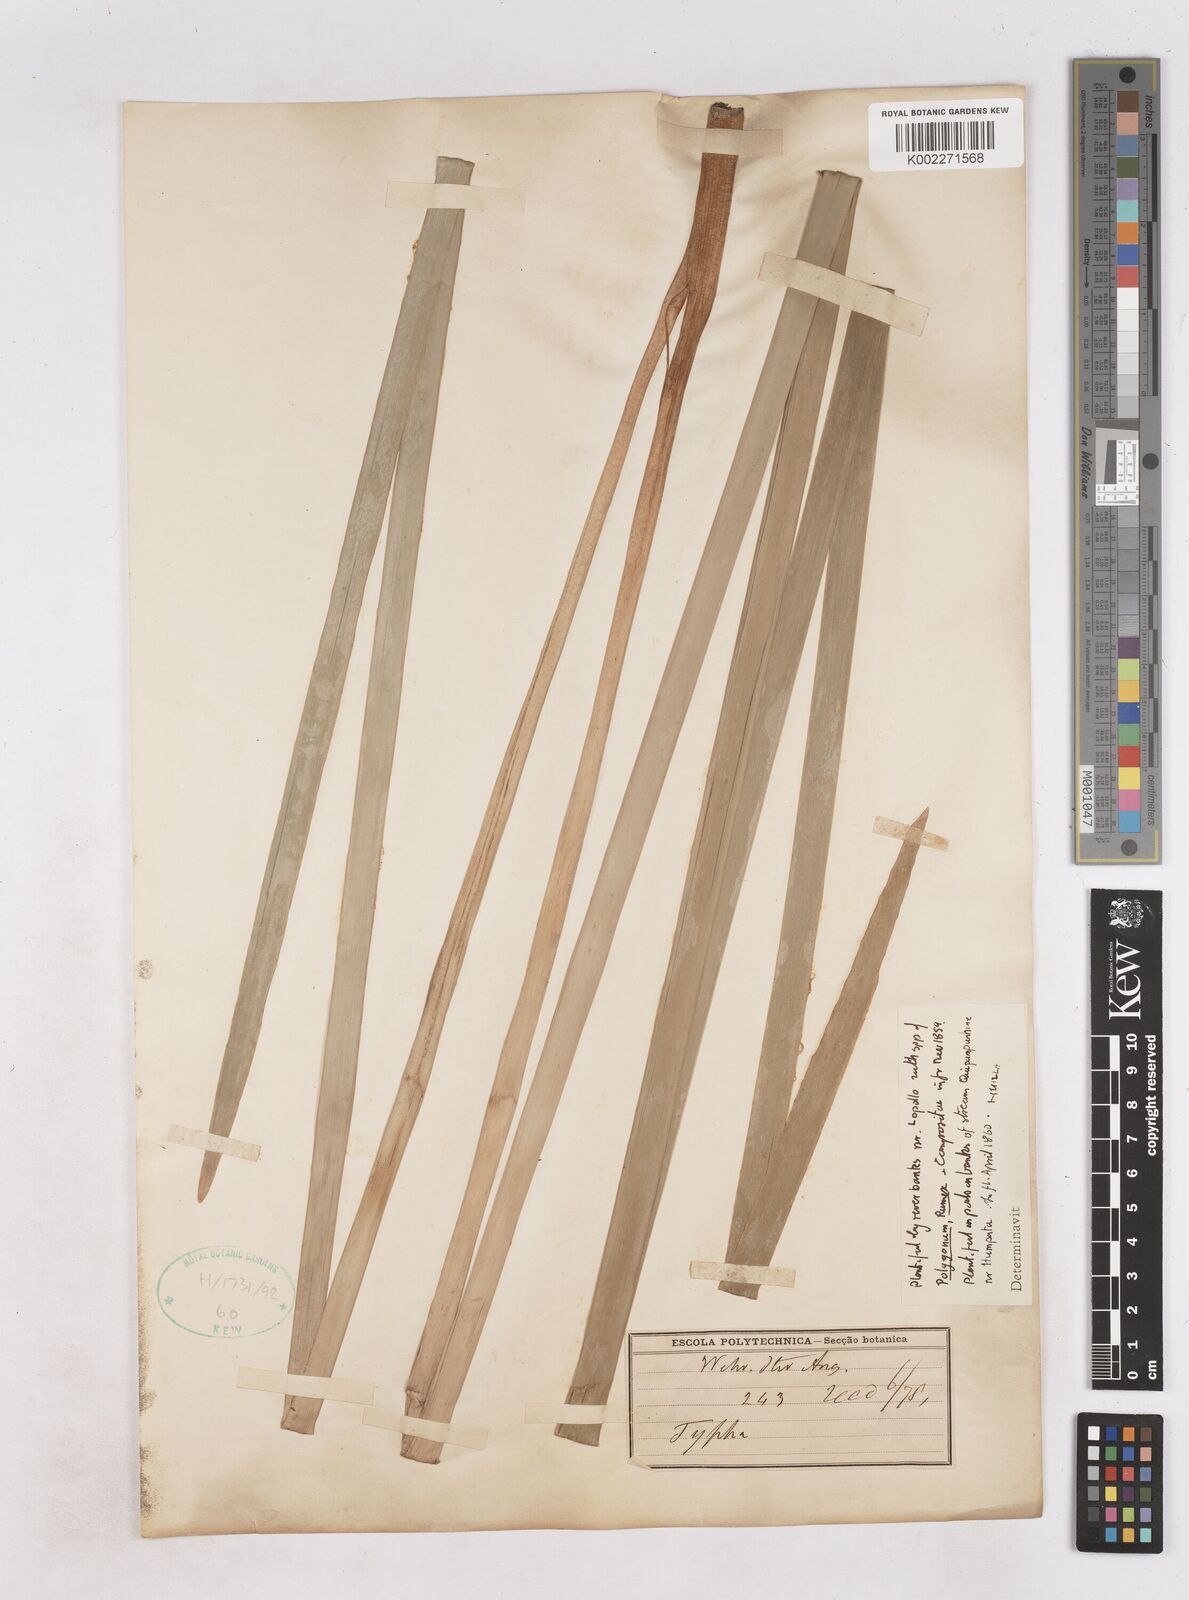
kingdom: Plantae
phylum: Tracheophyta
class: Liliopsida
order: Poales
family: Typhaceae
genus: Typha
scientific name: Typha
